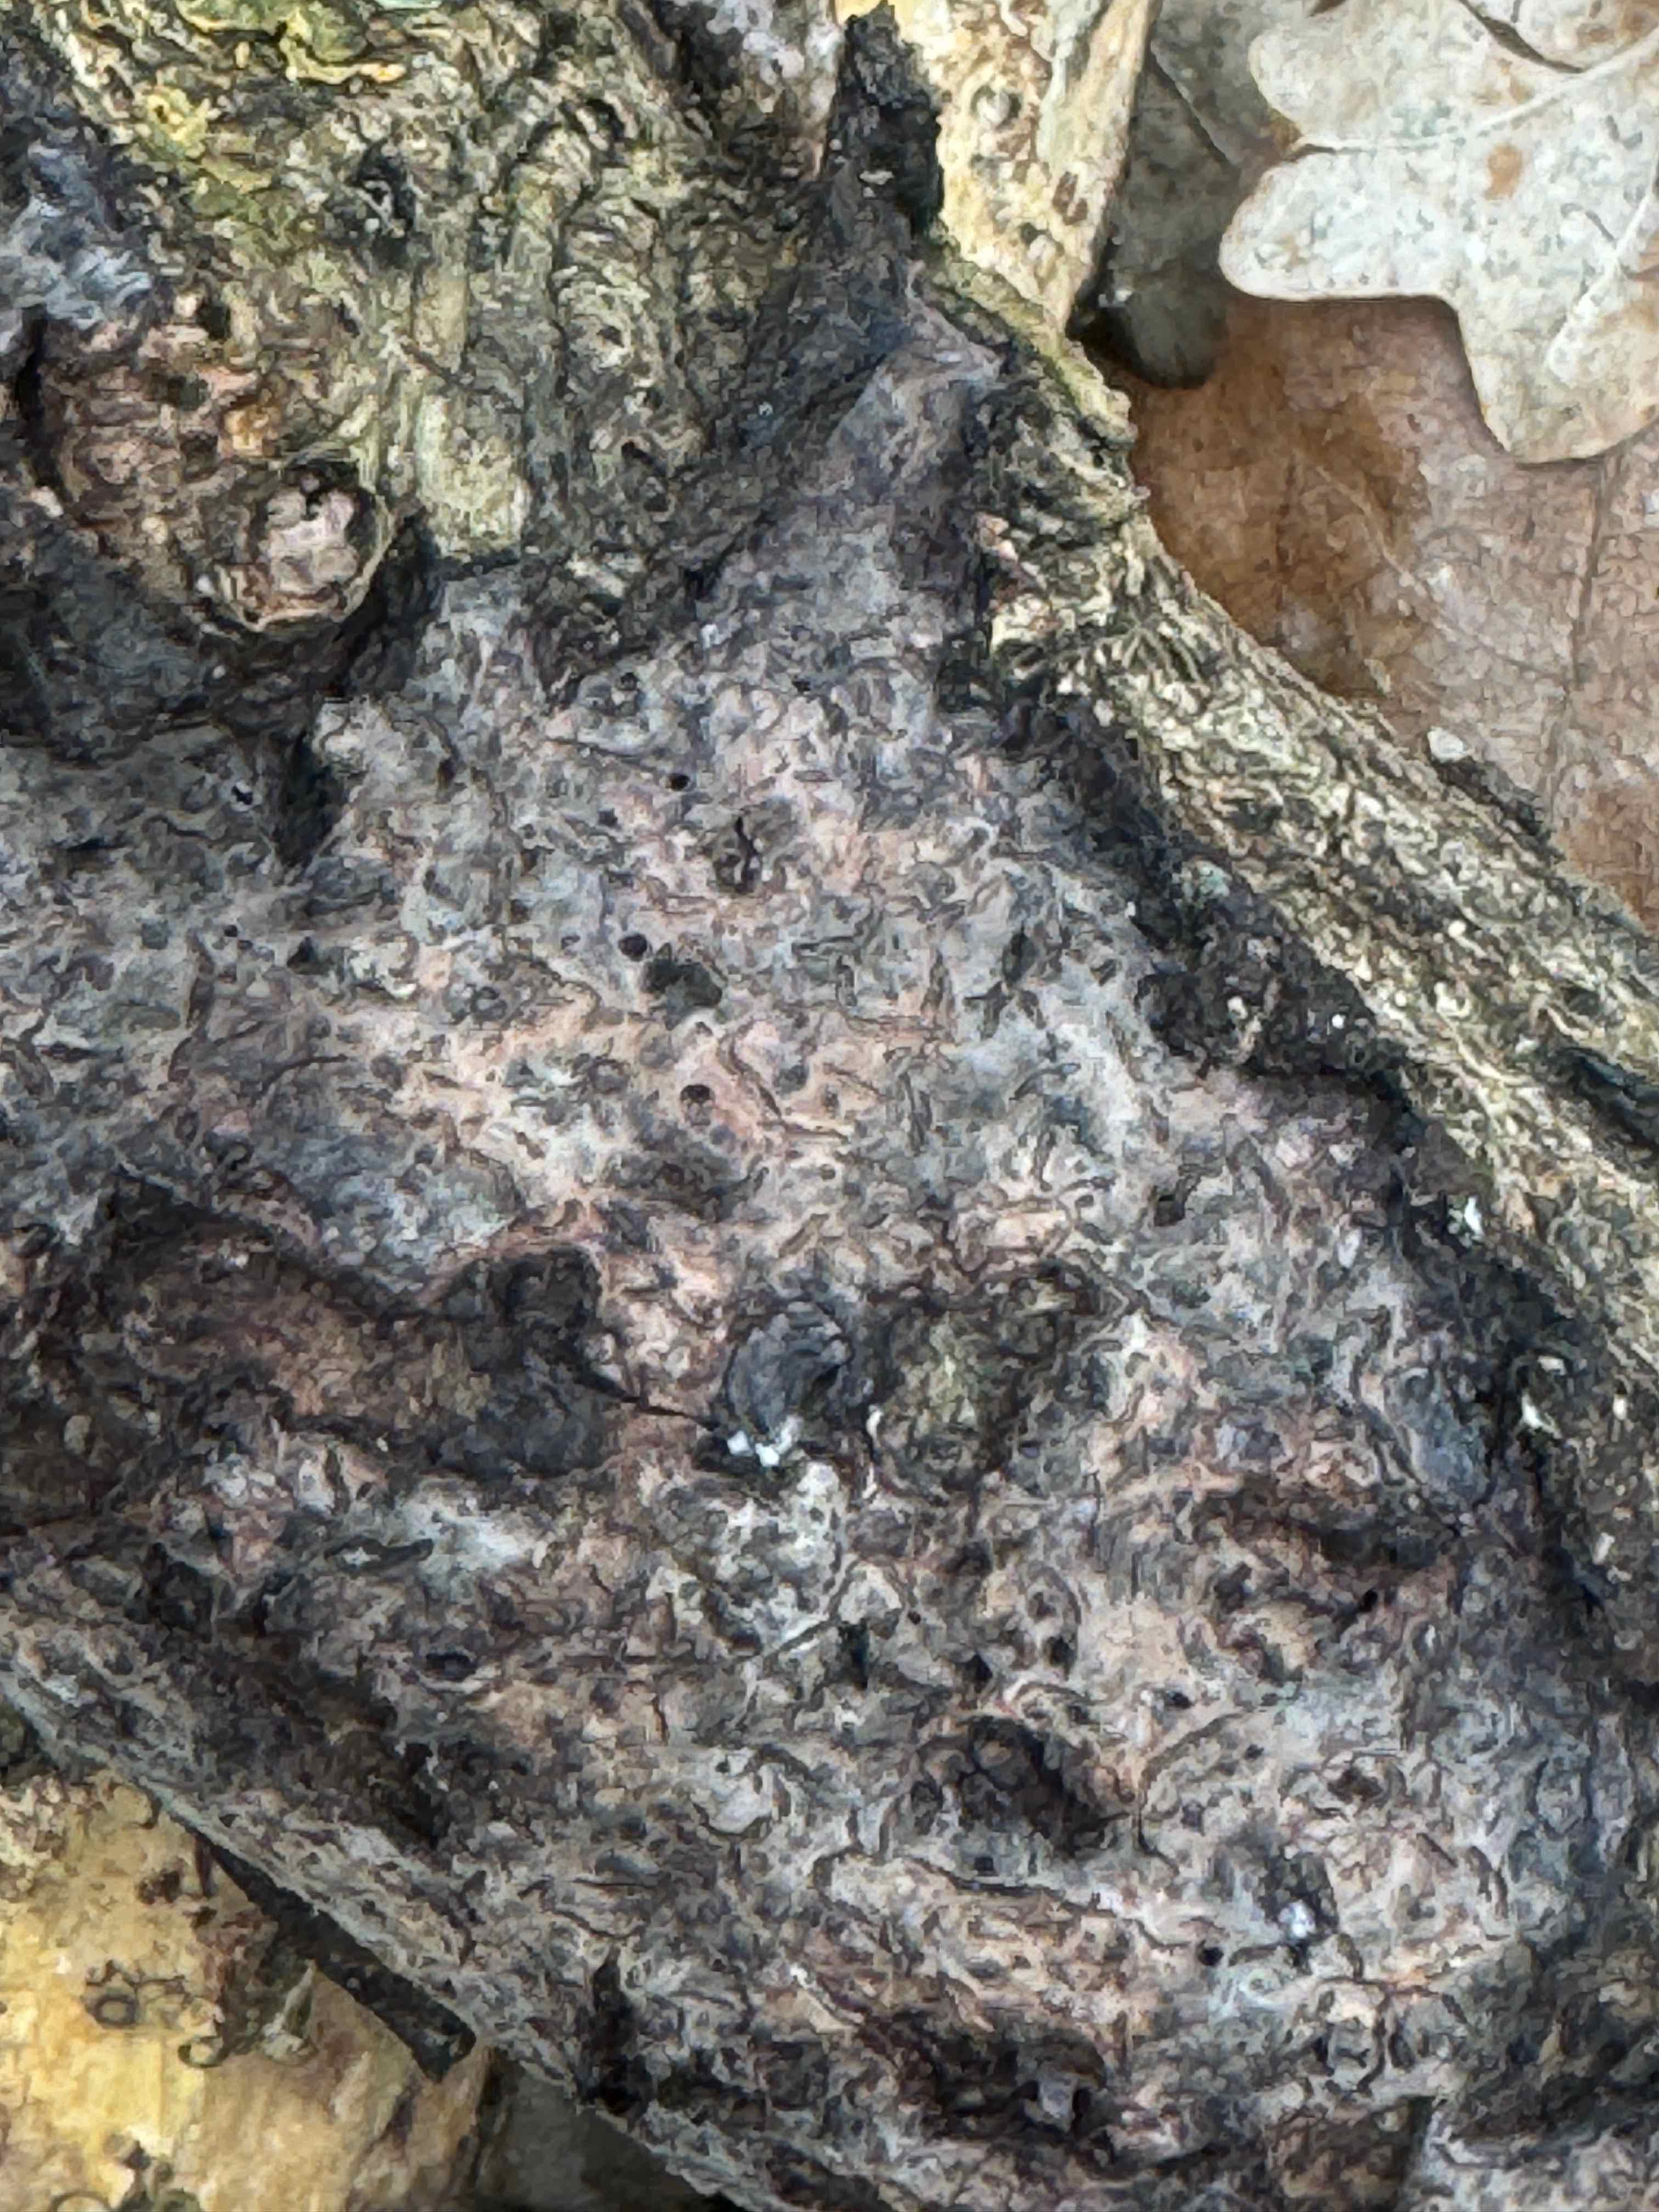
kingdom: Fungi
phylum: Basidiomycota
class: Agaricomycetes
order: Russulales
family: Peniophoraceae
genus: Peniophora
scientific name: Peniophora quercina
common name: ege-voksskind
